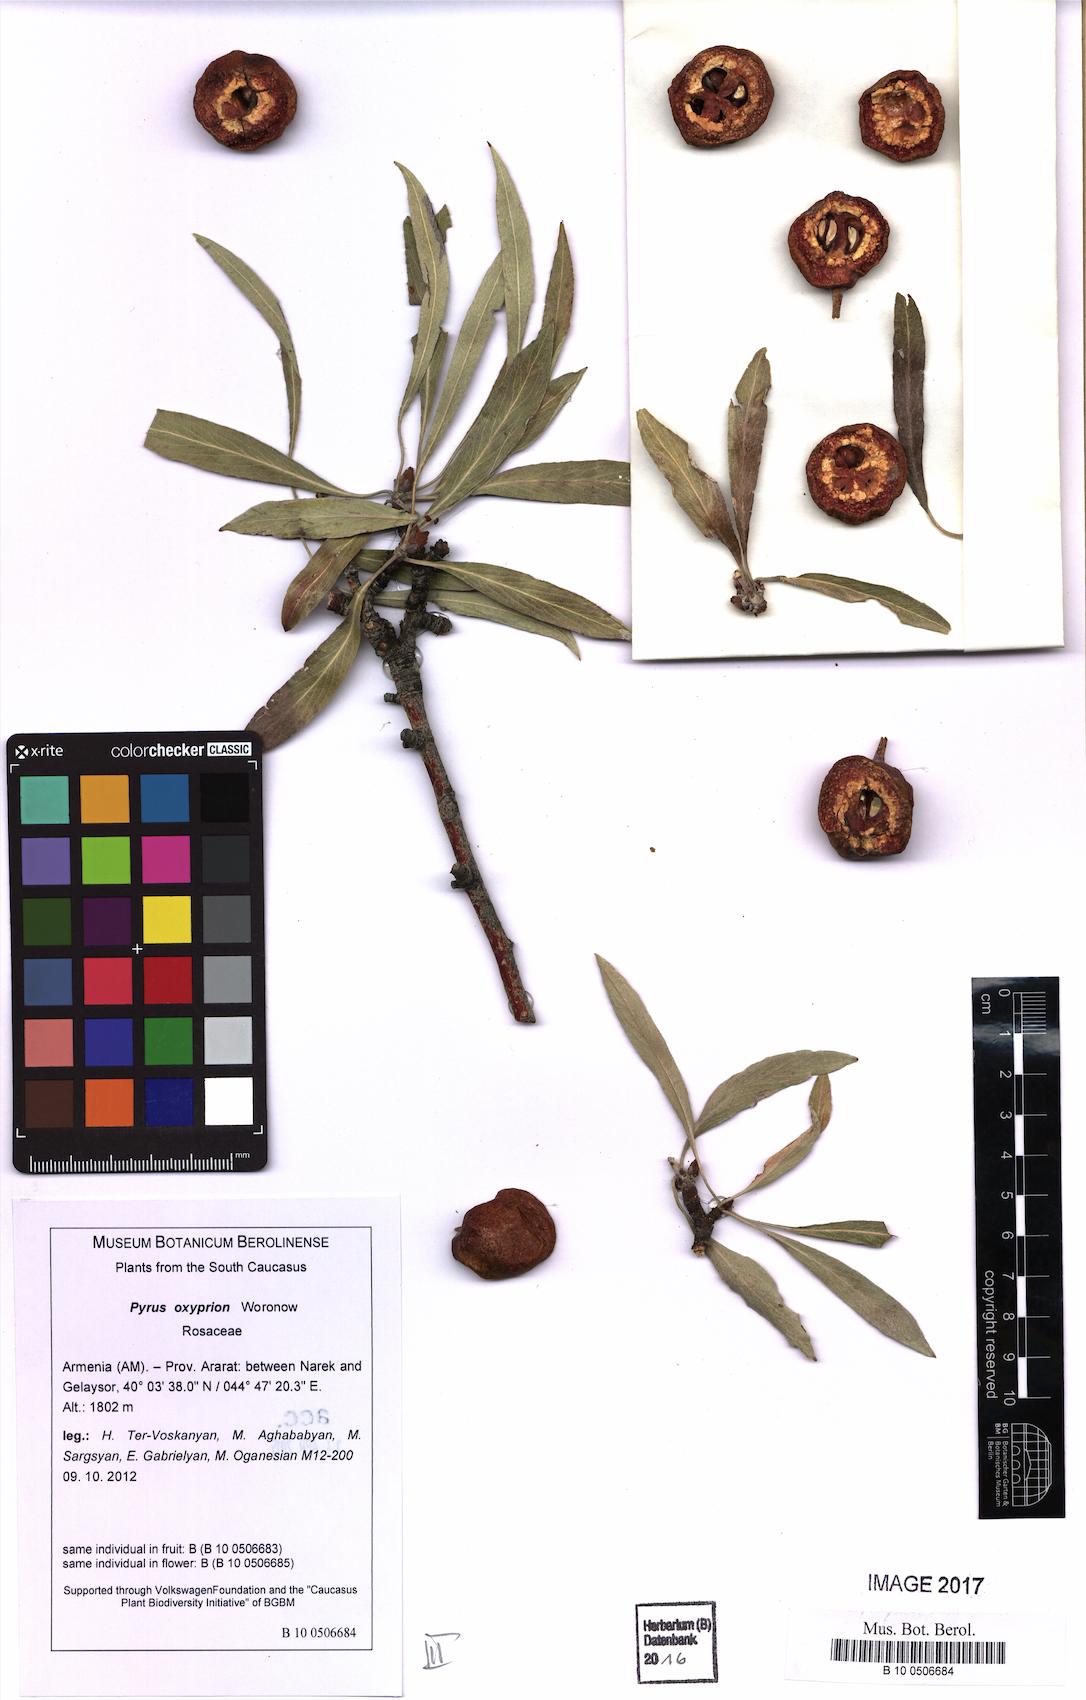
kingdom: Plantae
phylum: Tracheophyta
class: Magnoliopsida
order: Rosales
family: Rosaceae
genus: Pyrus
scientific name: Pyrus oxyprion
